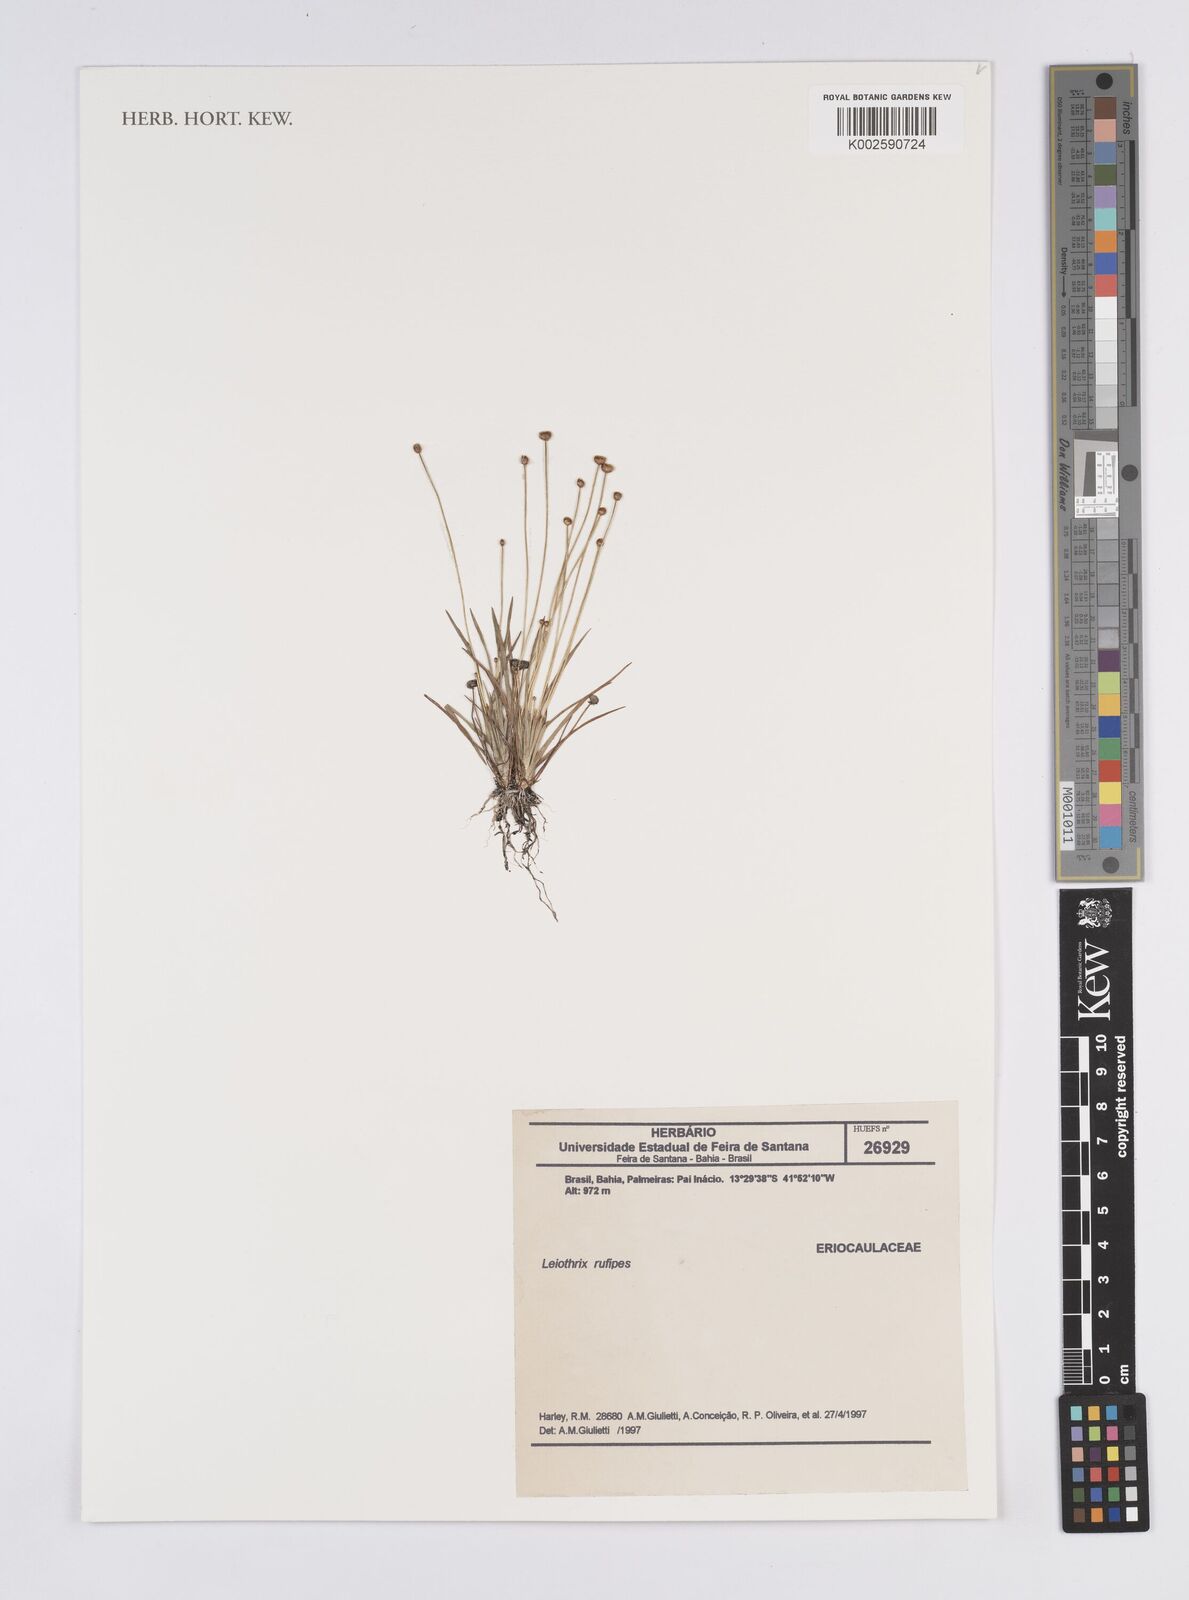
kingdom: Plantae
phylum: Tracheophyta
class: Liliopsida
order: Poales
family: Eriocaulaceae
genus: Leiothrix
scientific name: Leiothrix rufula
